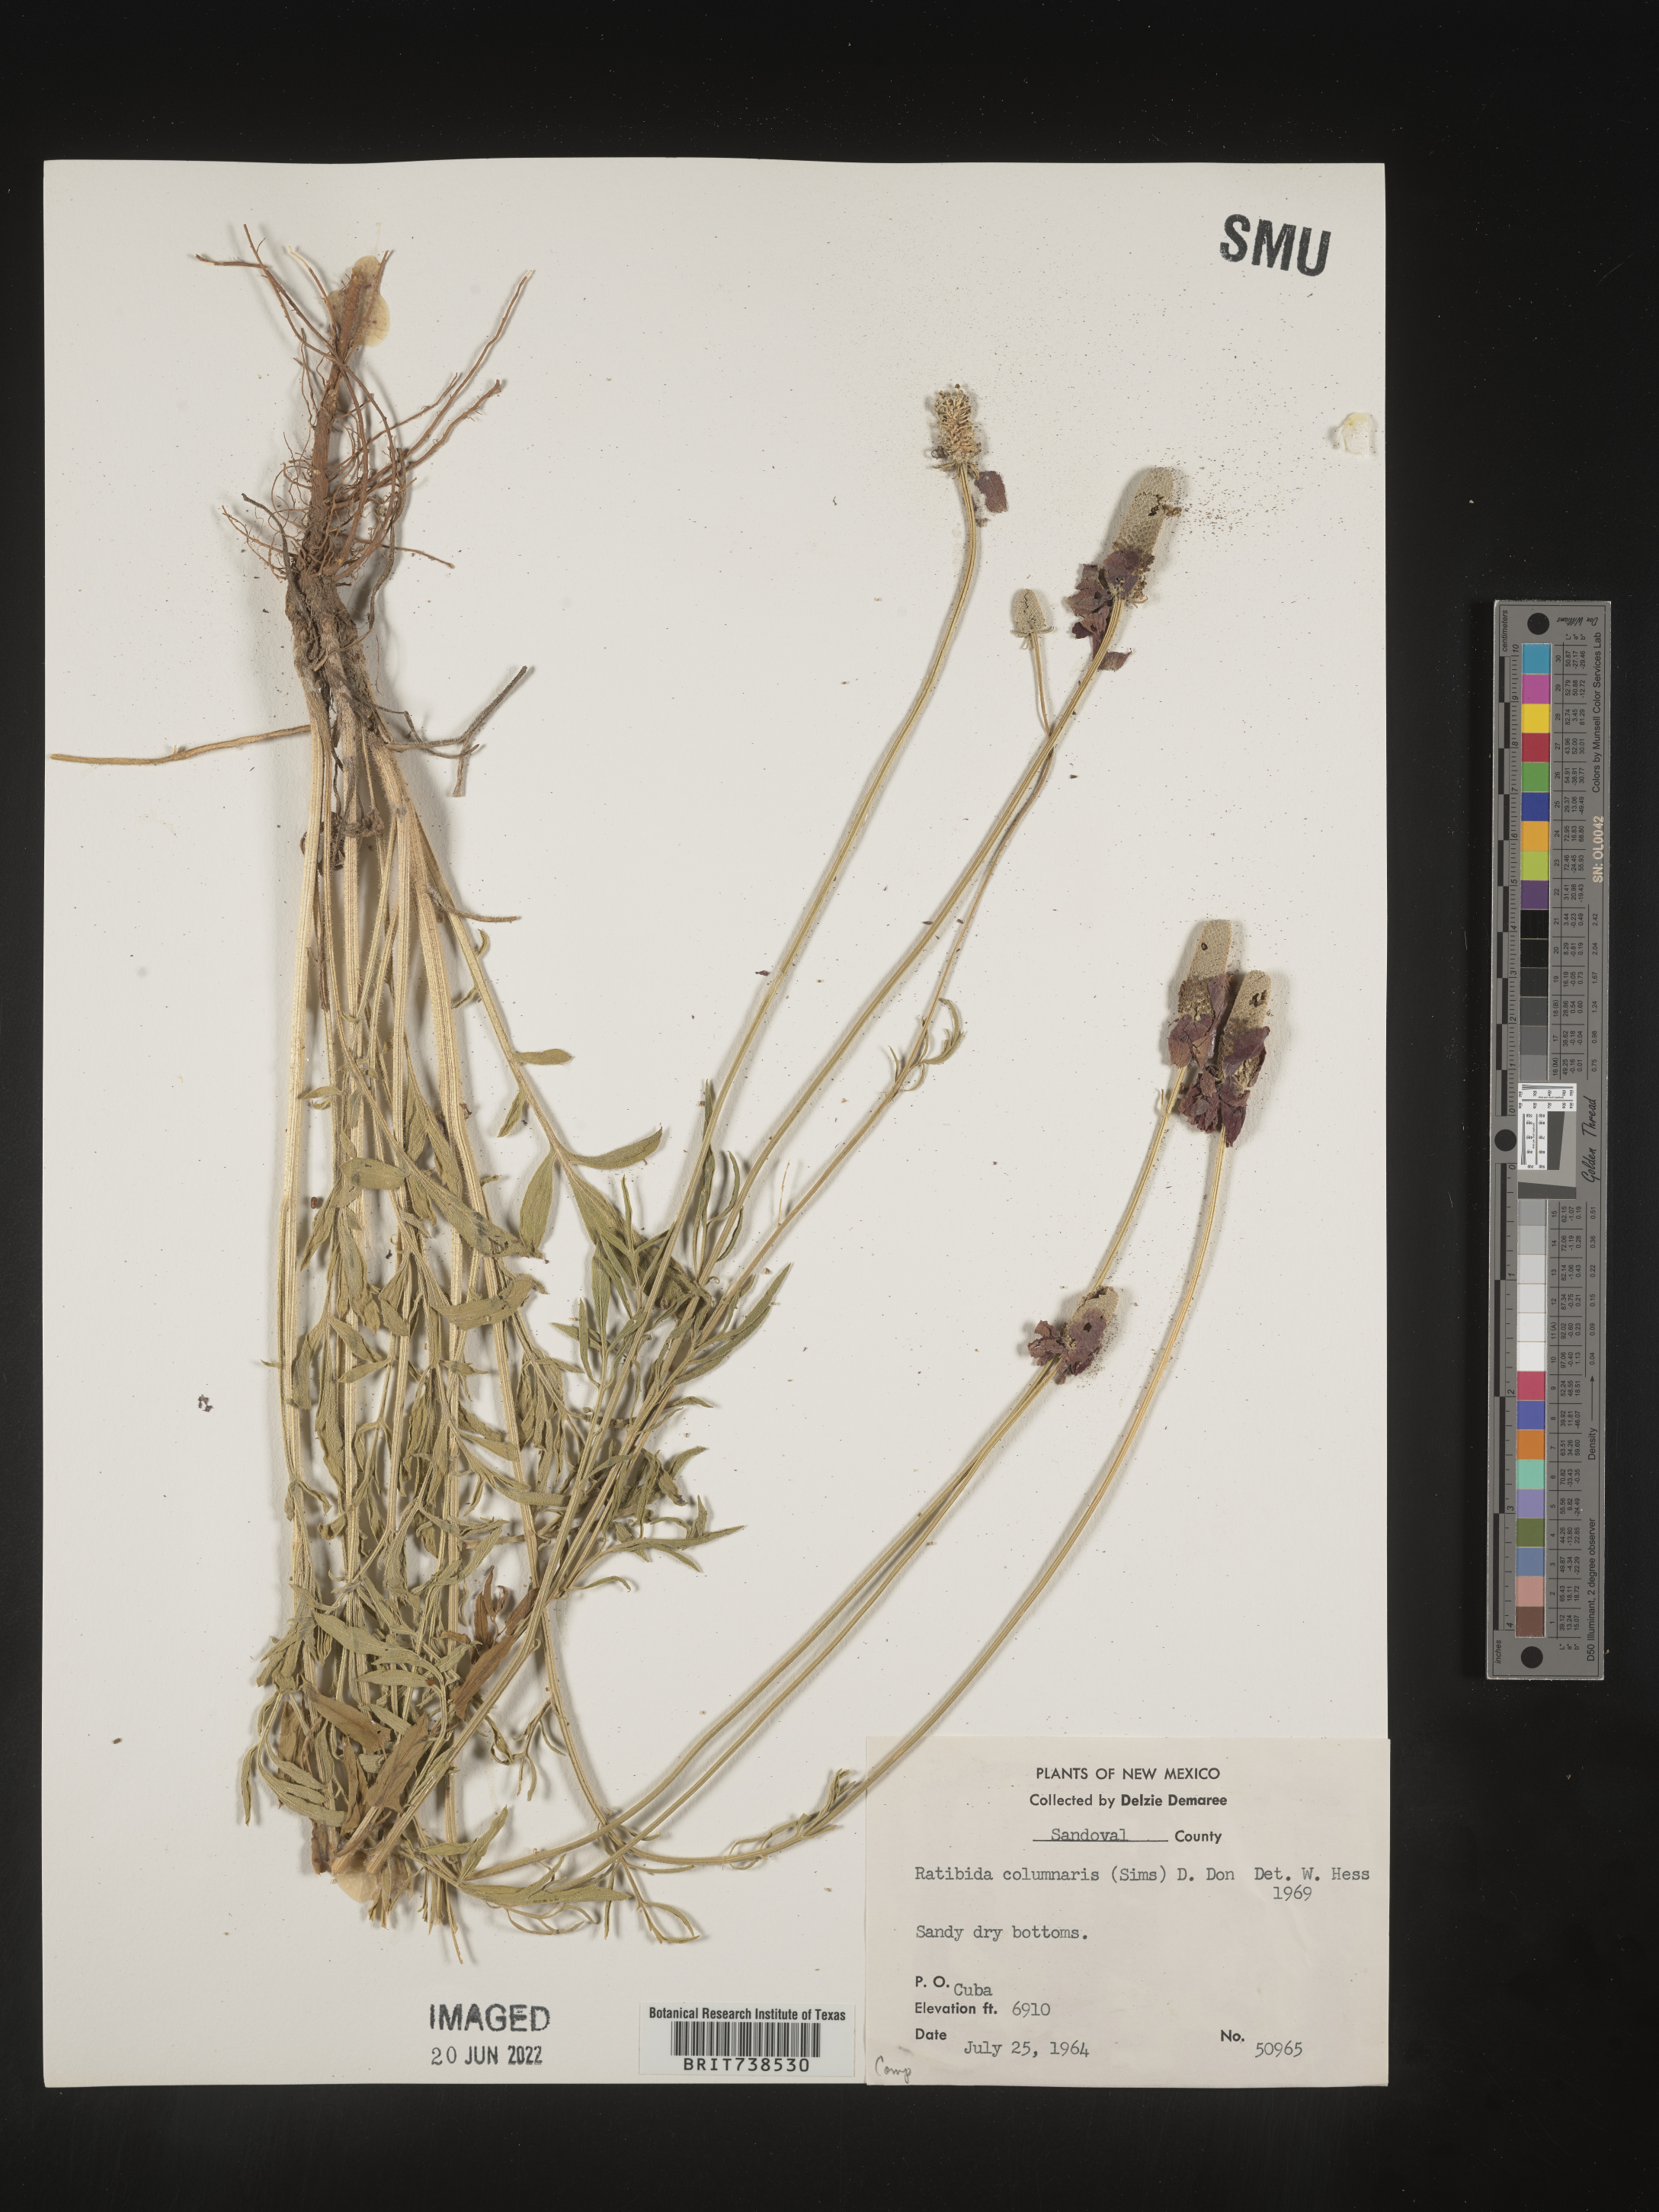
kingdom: Plantae
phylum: Tracheophyta
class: Magnoliopsida
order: Asterales
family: Asteraceae
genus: Ratibida
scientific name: Ratibida columnifera
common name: Prairie coneflower
